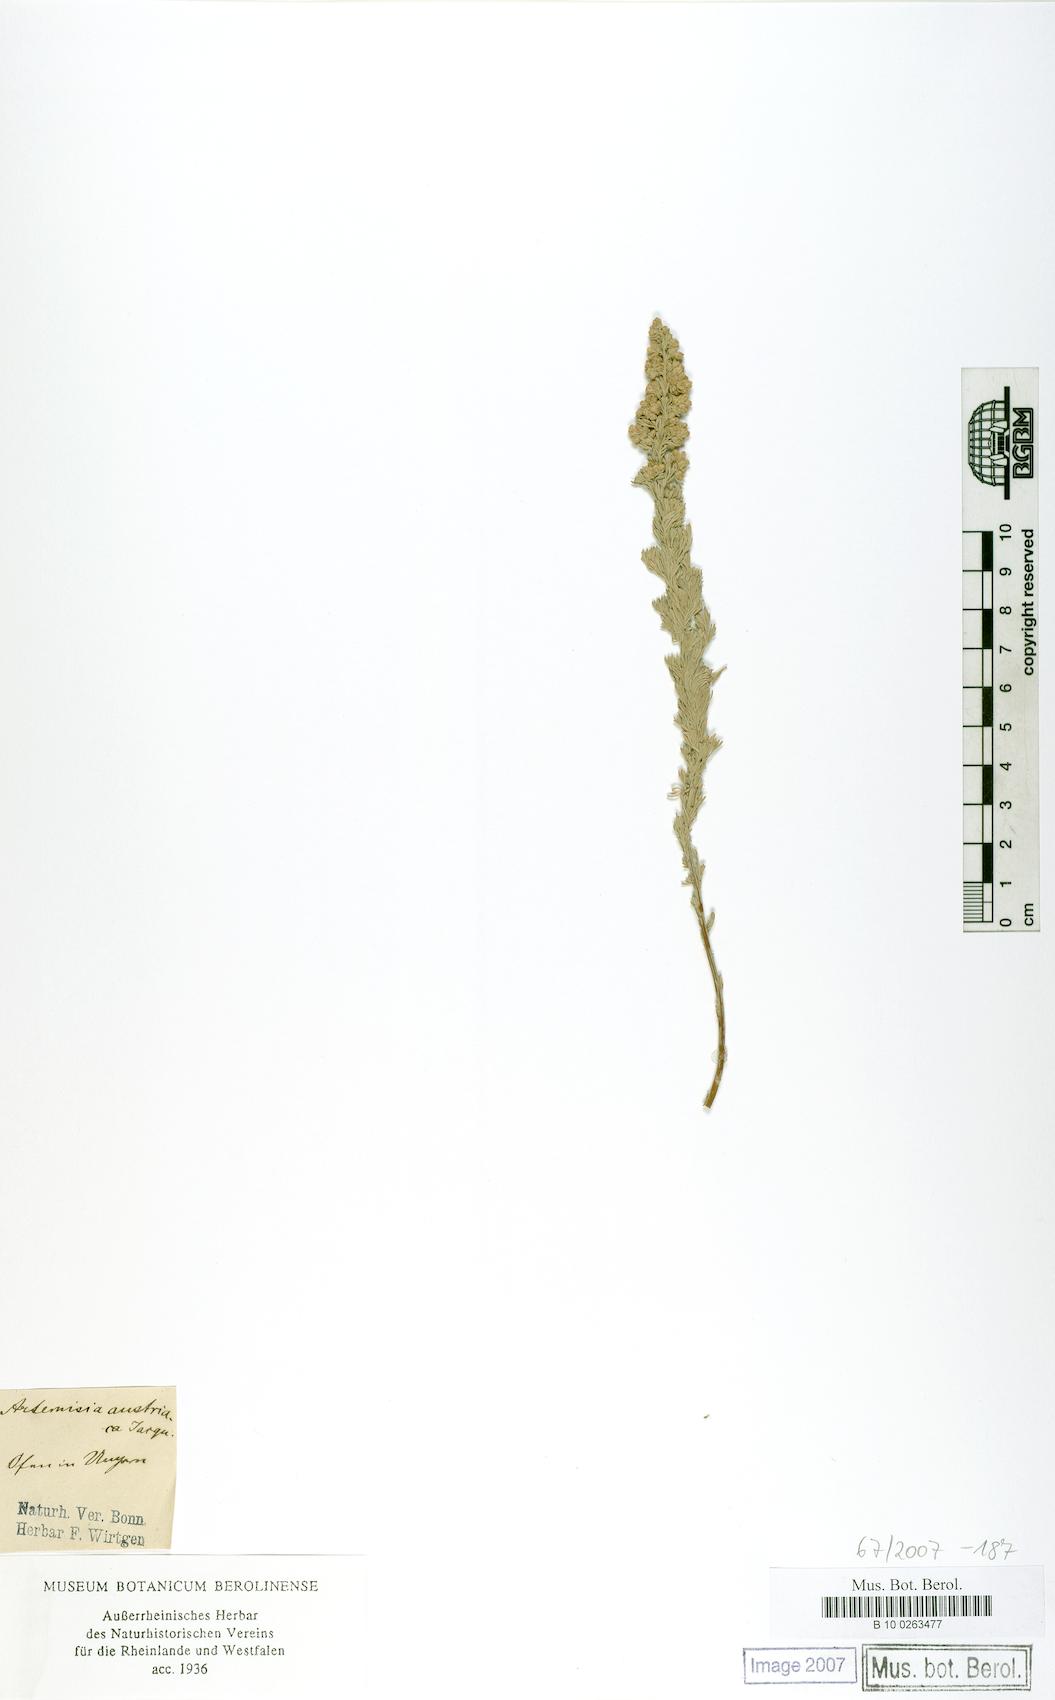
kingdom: Plantae
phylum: Tracheophyta
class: Magnoliopsida
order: Asterales
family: Asteraceae
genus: Artemisia
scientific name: Artemisia austriaca
